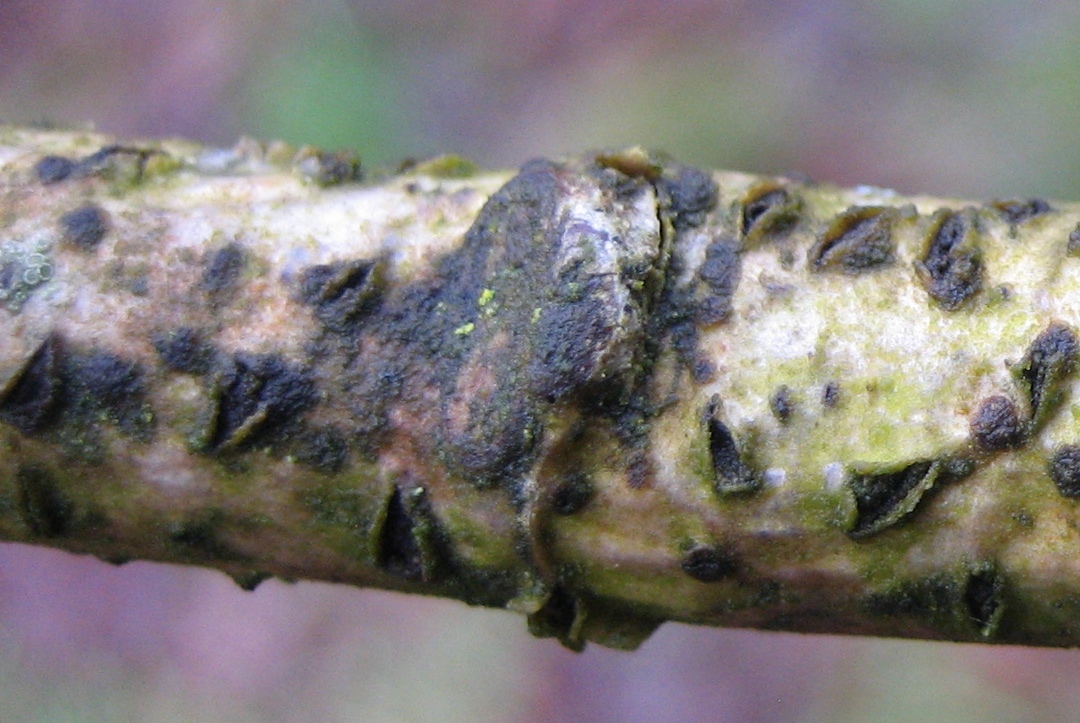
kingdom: Fungi
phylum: Ascomycota
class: Leotiomycetes
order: Rhytismatales
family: Rhytismataceae
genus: Colpoma
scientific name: Colpoma quercinum
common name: ege-sprækkeskive
